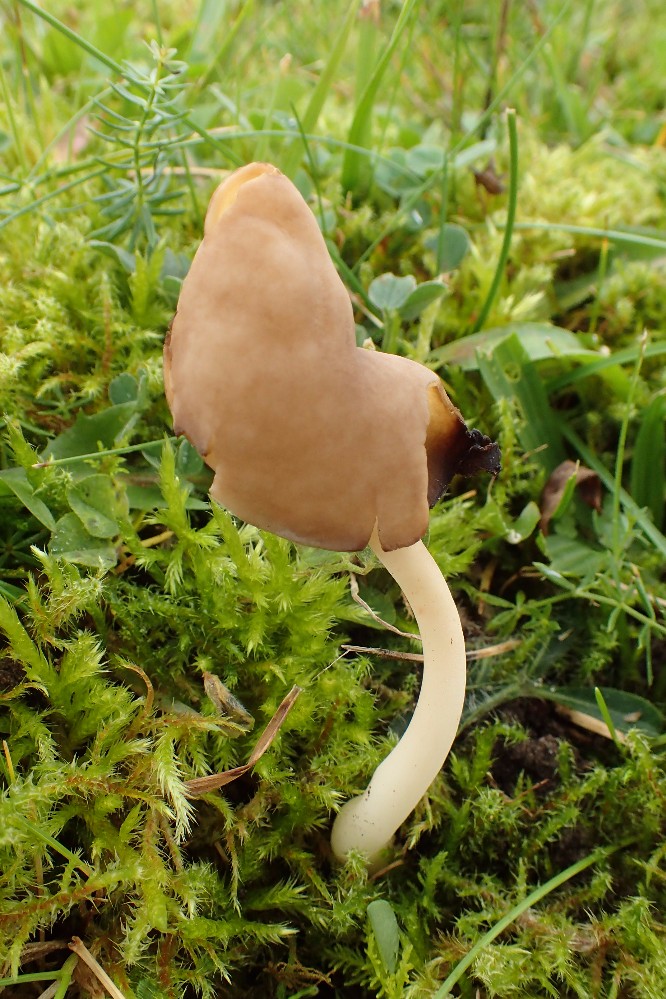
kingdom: Fungi
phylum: Ascomycota
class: Pezizomycetes
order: Pezizales
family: Helvellaceae
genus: Helvella
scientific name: Helvella elastica
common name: elastik-foldhat
